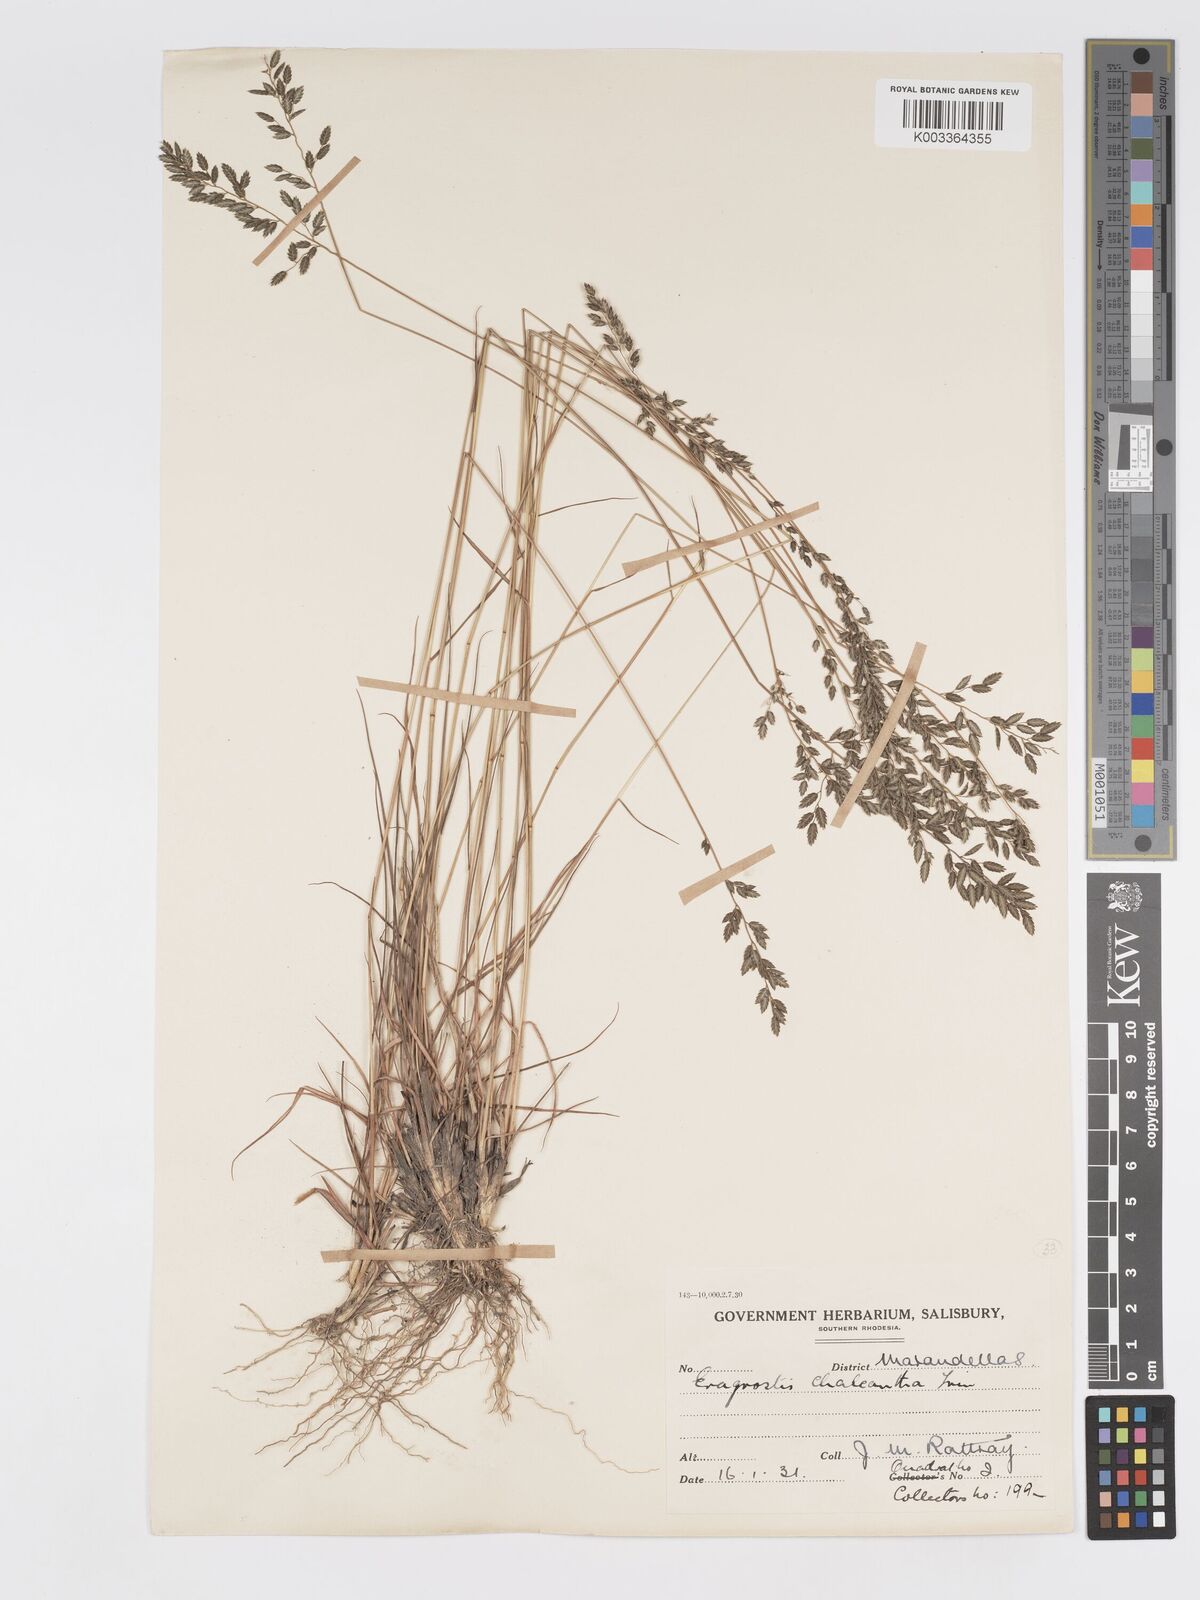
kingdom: Plantae
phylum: Tracheophyta
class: Liliopsida
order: Poales
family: Poaceae
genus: Eragrostis
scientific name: Eragrostis racemosa
